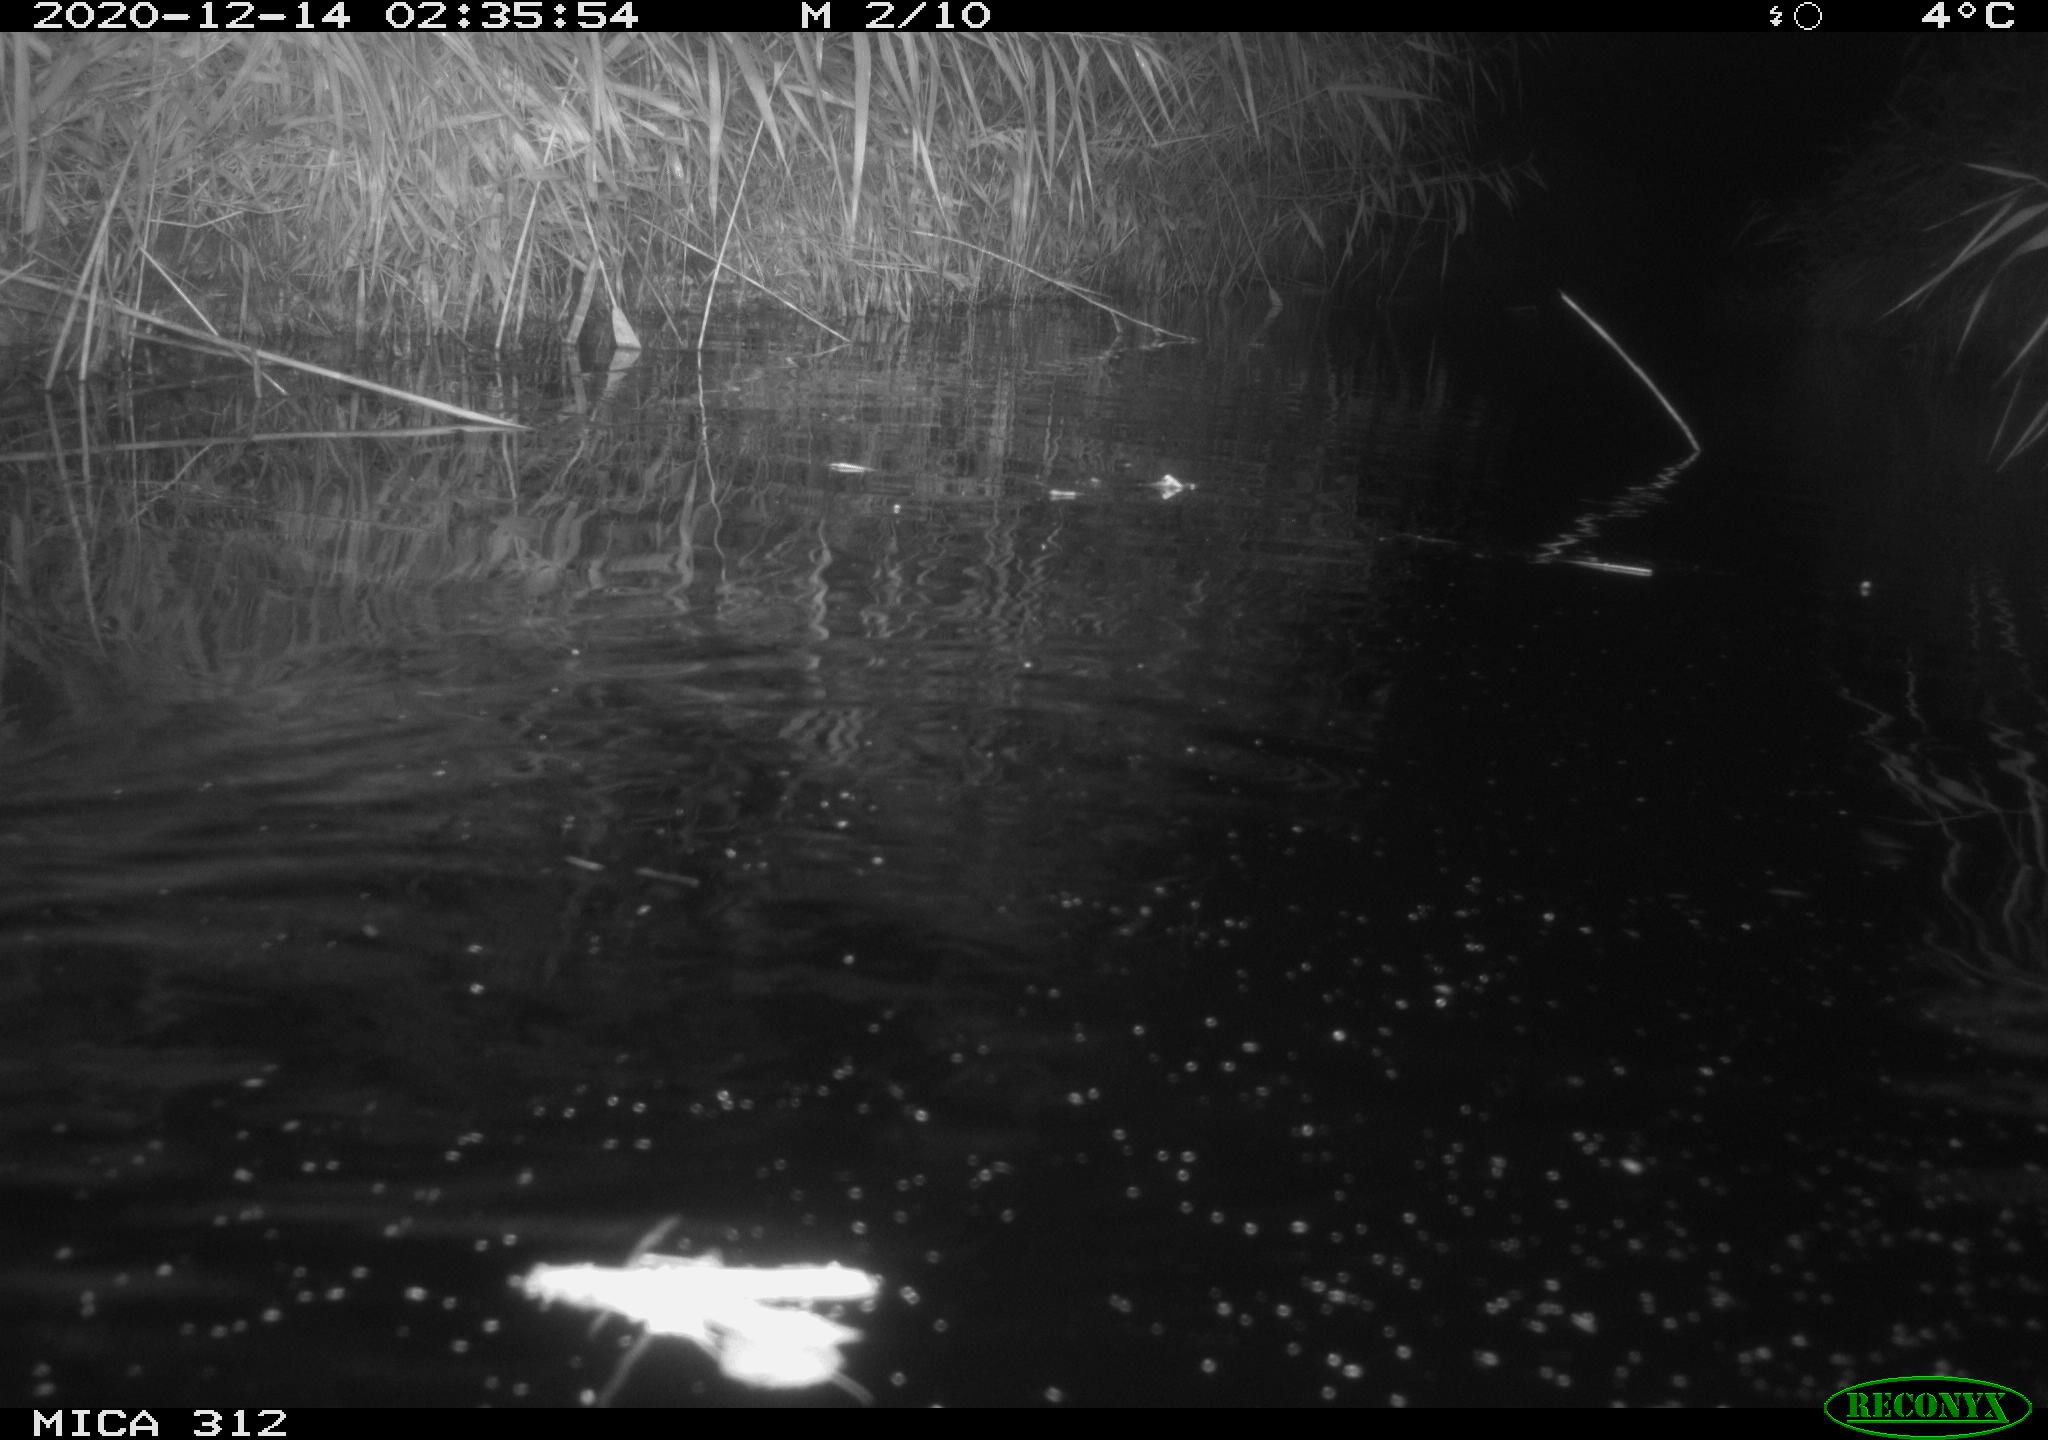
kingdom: Animalia
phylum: Chordata
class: Mammalia
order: Rodentia
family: Muridae
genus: Rattus
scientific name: Rattus norvegicus
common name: Brown rat
